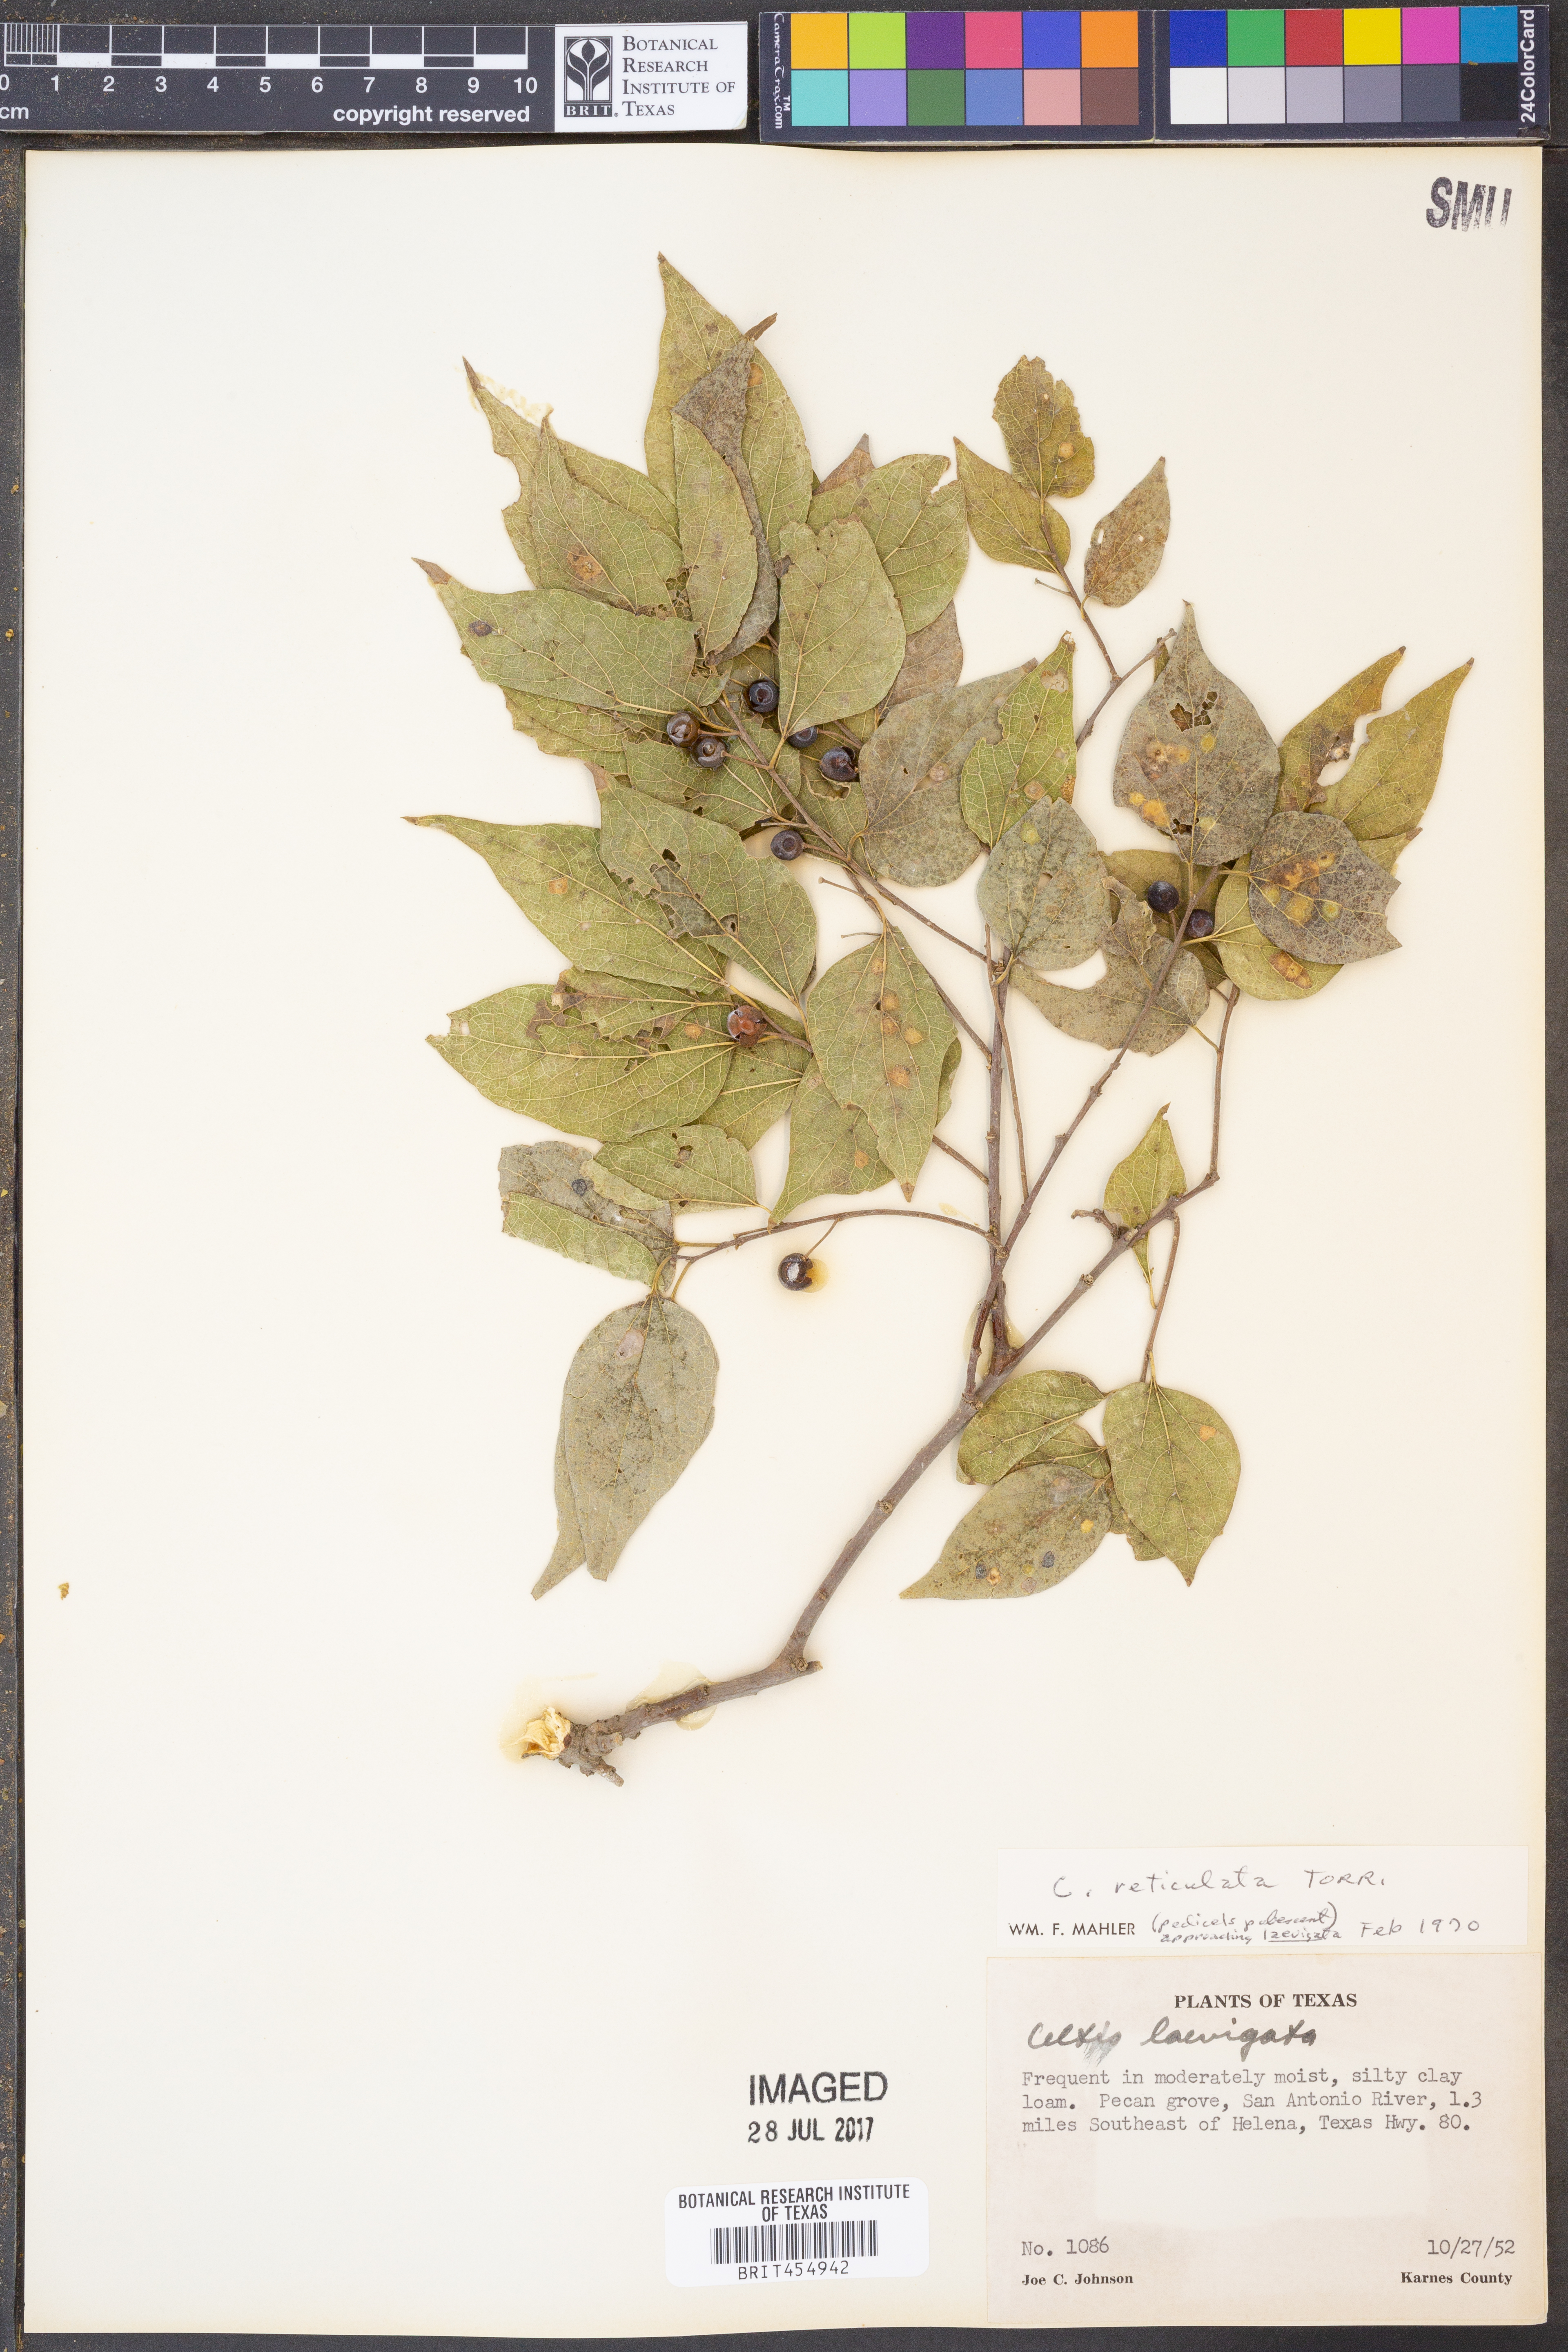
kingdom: Plantae
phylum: Tracheophyta
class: Magnoliopsida
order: Rosales
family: Cannabaceae
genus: Celtis
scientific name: Celtis laevigata
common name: Sugarberry
